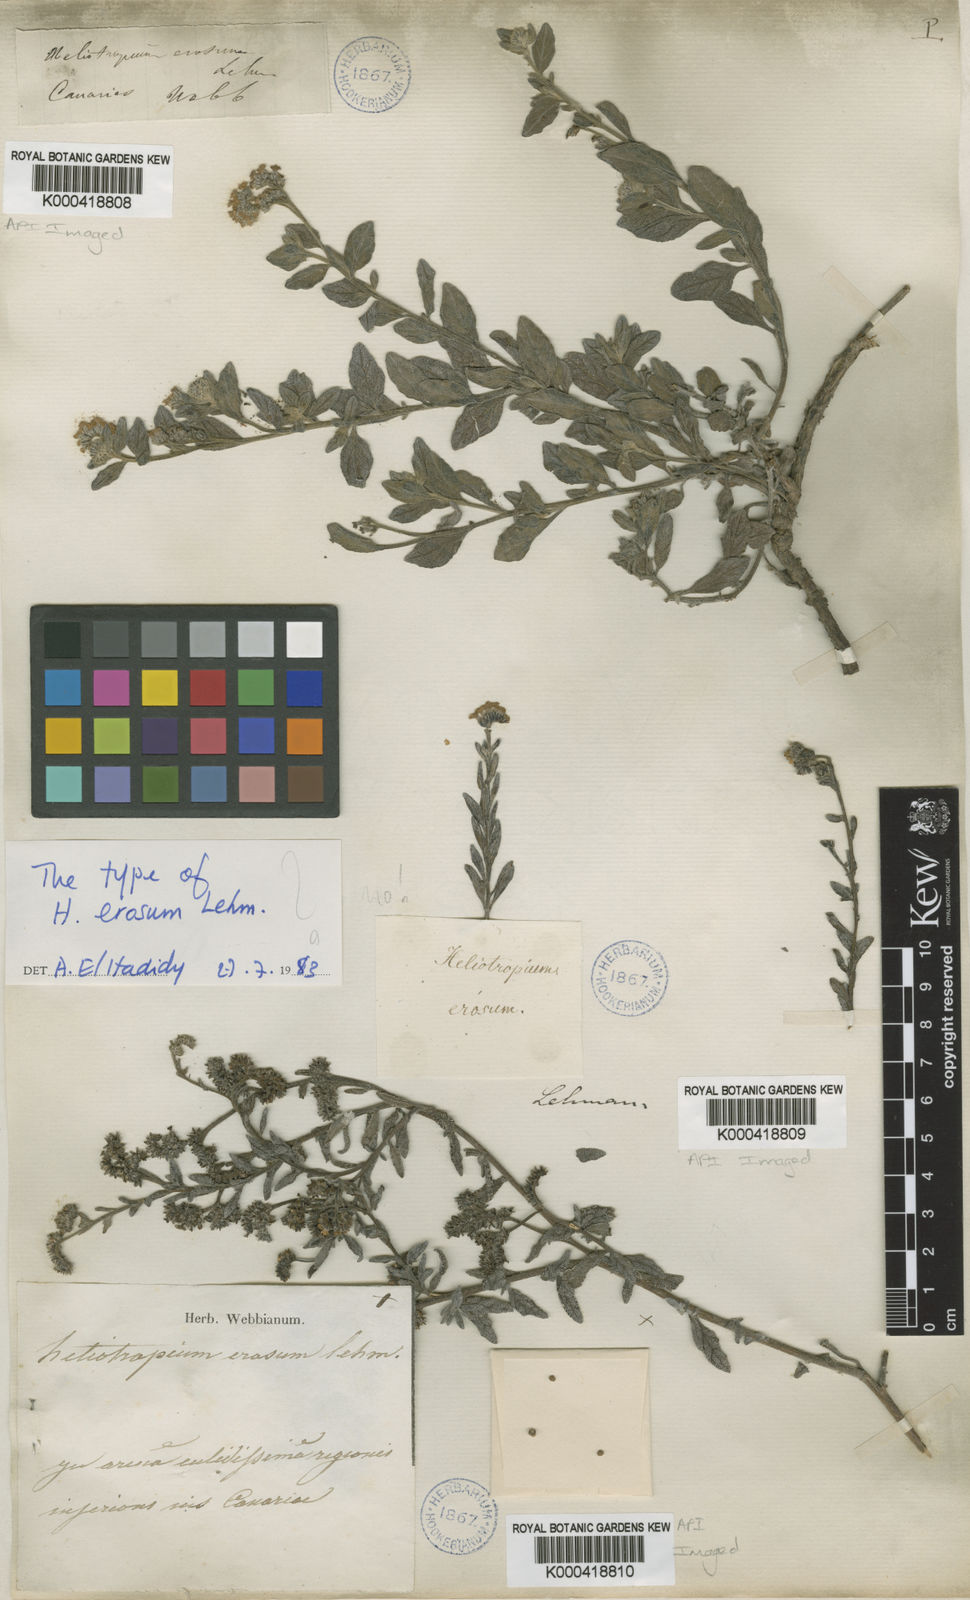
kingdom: Plantae
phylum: Tracheophyta
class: Magnoliopsida
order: Boraginales
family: Heliotropiaceae
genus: Heliotropium
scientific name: Heliotropium crispum
